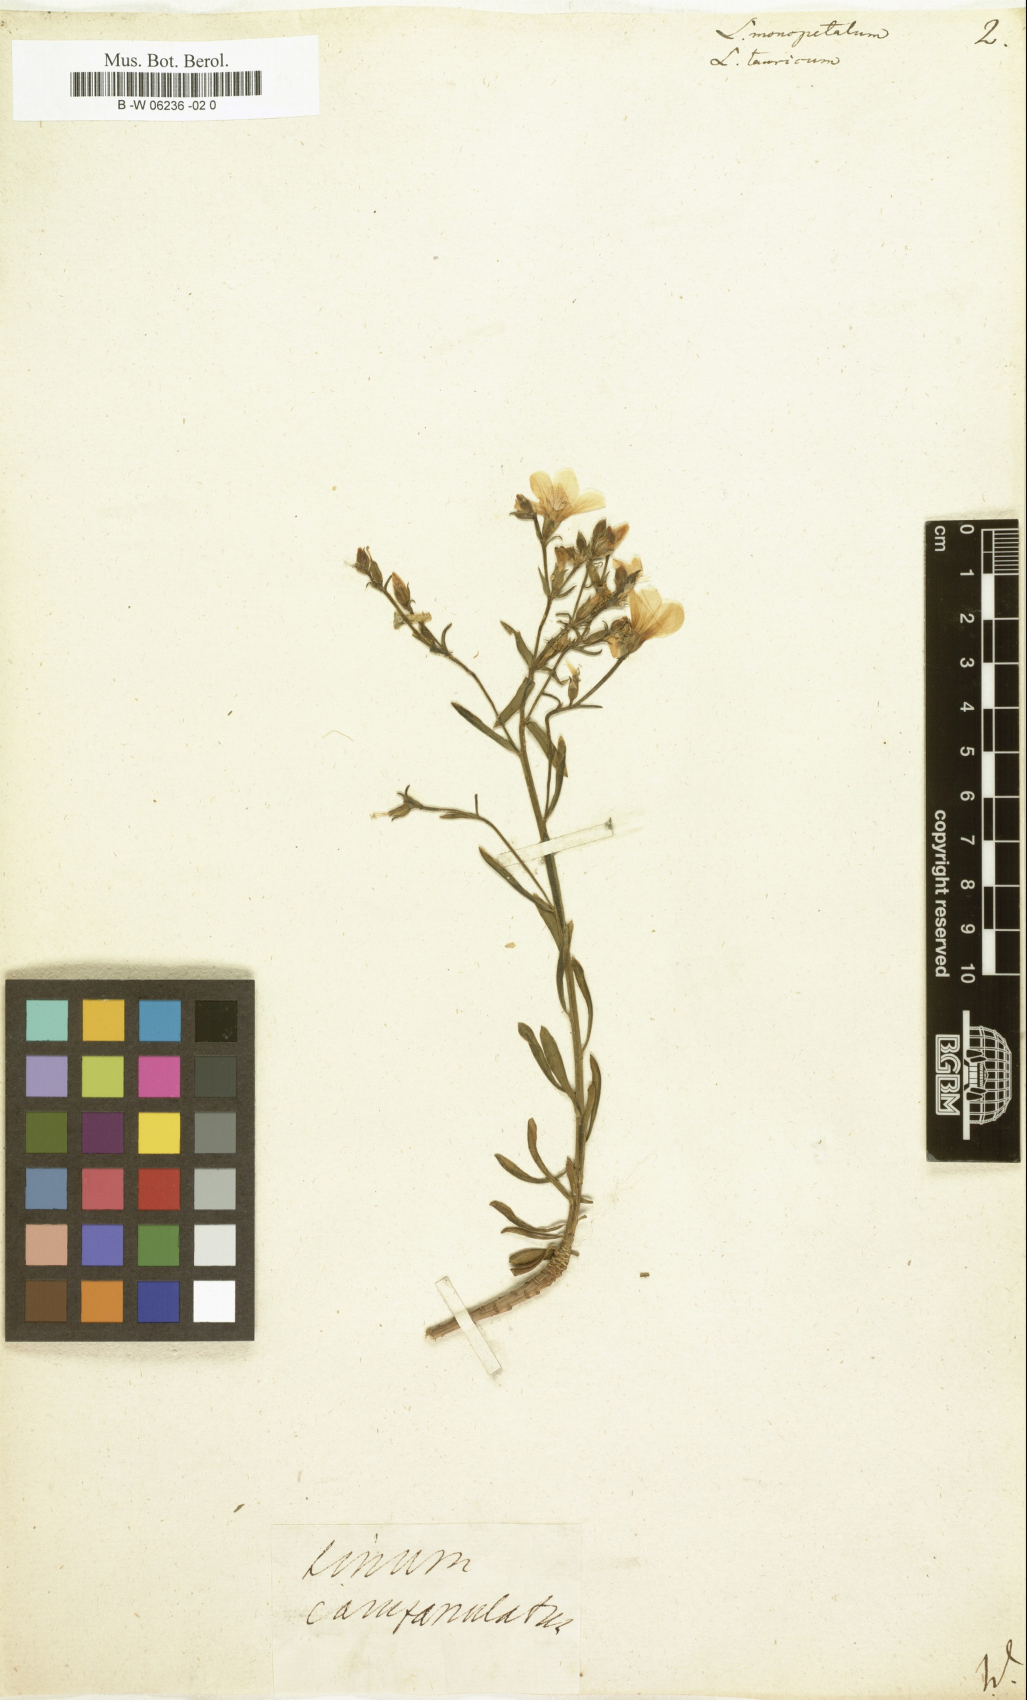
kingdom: Plantae
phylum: Tracheophyta
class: Magnoliopsida
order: Malpighiales
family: Linaceae
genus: Linum
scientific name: Linum monopetalum
